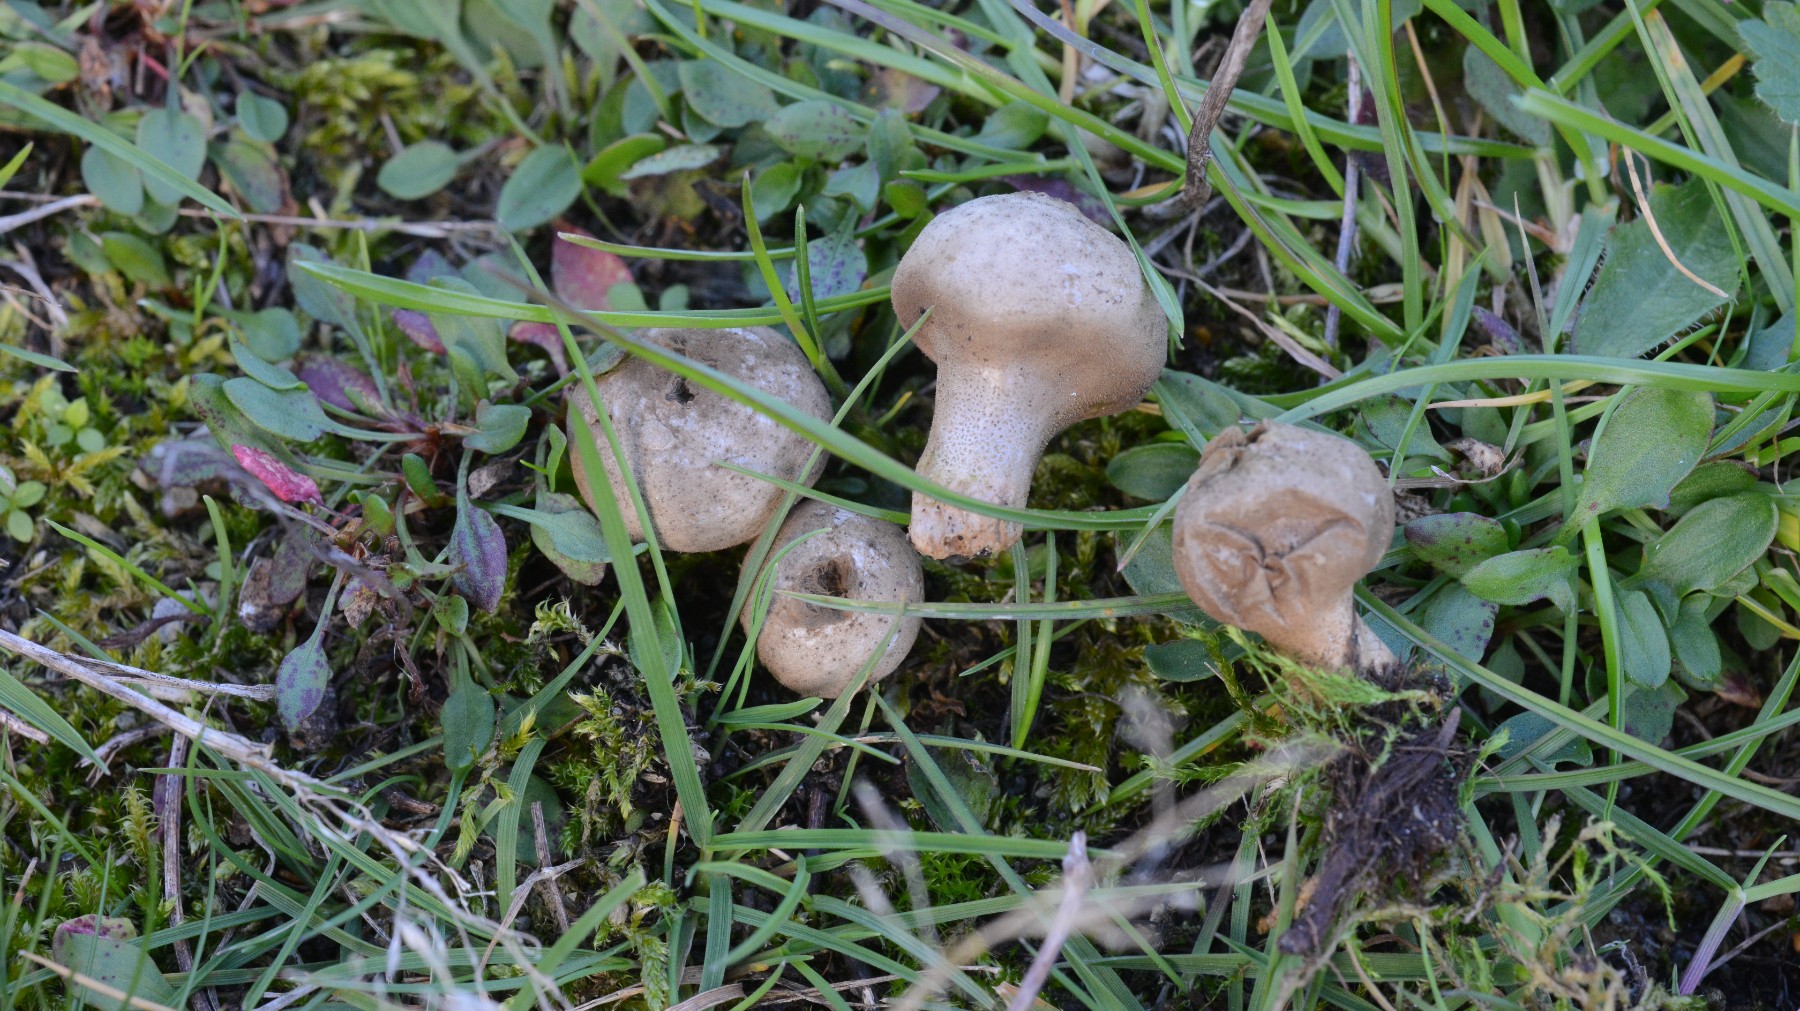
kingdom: Fungi
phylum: Basidiomycota
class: Agaricomycetes
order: Agaricales
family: Lycoperdaceae
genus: Lycoperdon
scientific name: Lycoperdon lividum
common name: mark-støvbold
